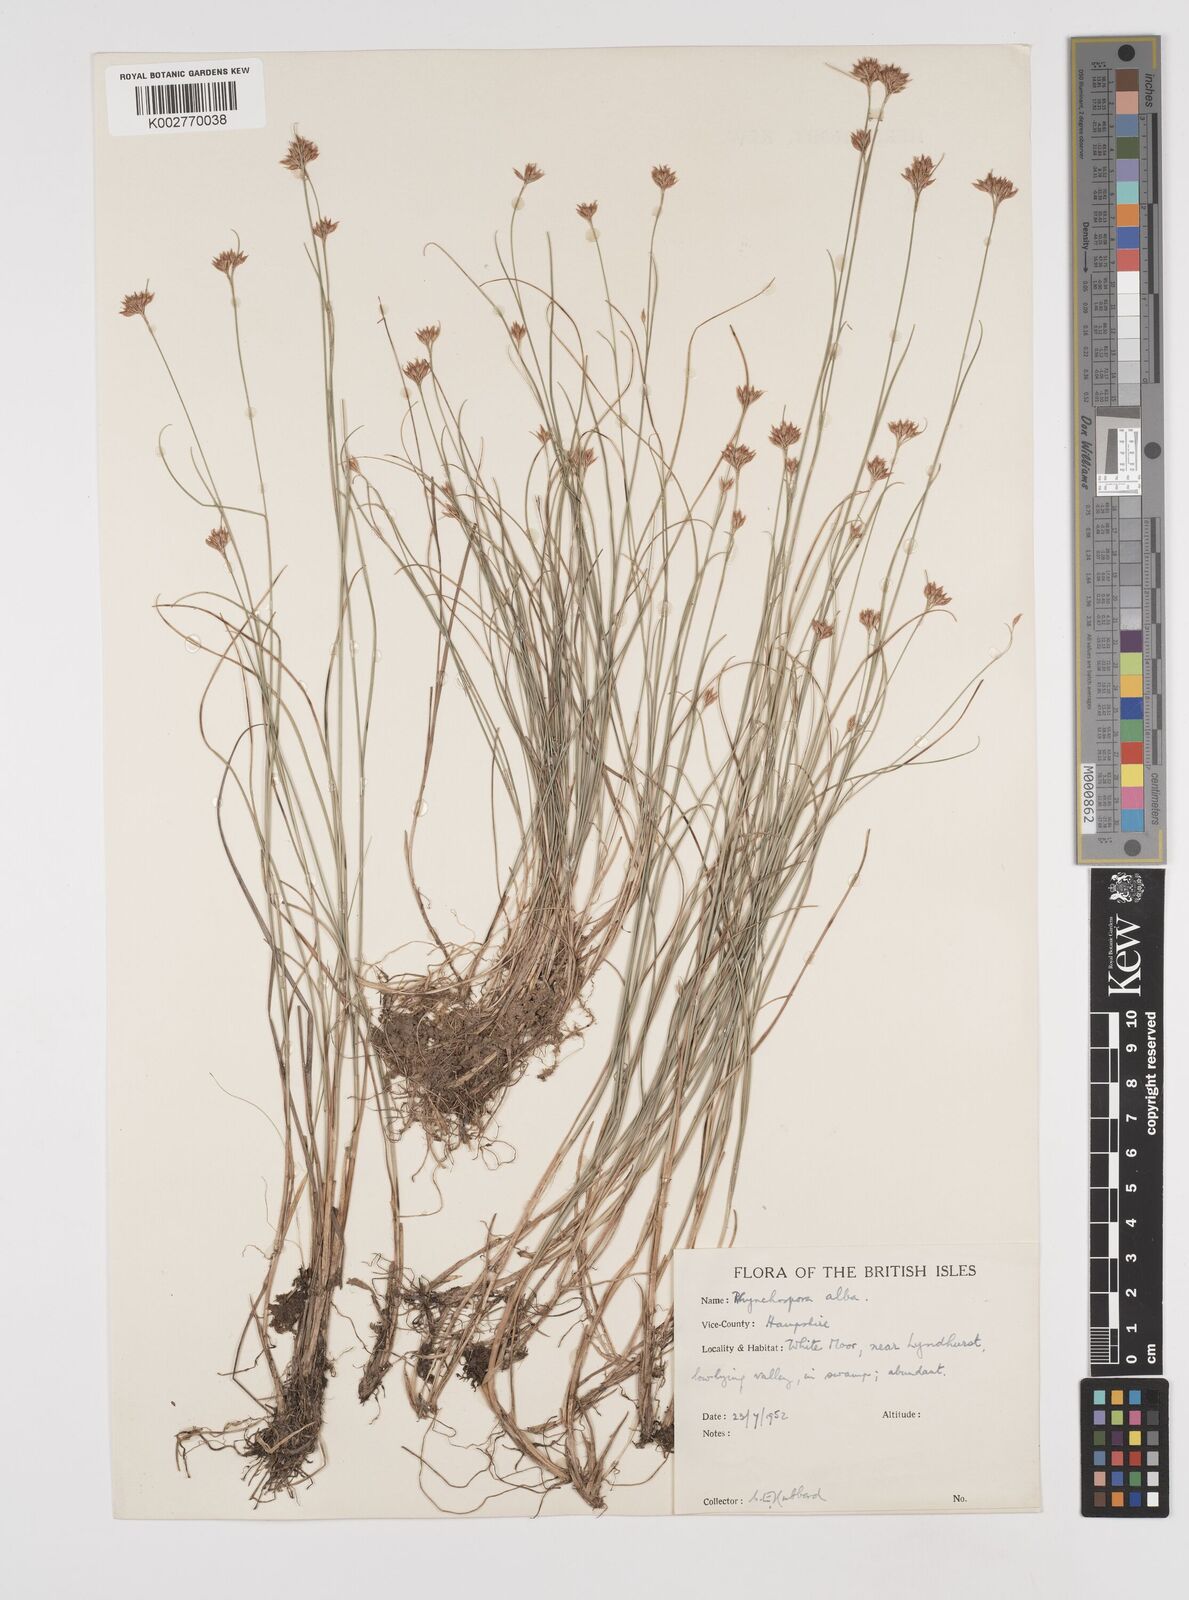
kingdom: Plantae
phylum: Tracheophyta
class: Liliopsida
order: Poales
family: Cyperaceae
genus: Rhynchospora
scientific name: Rhynchospora alba
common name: White beak-sedge
